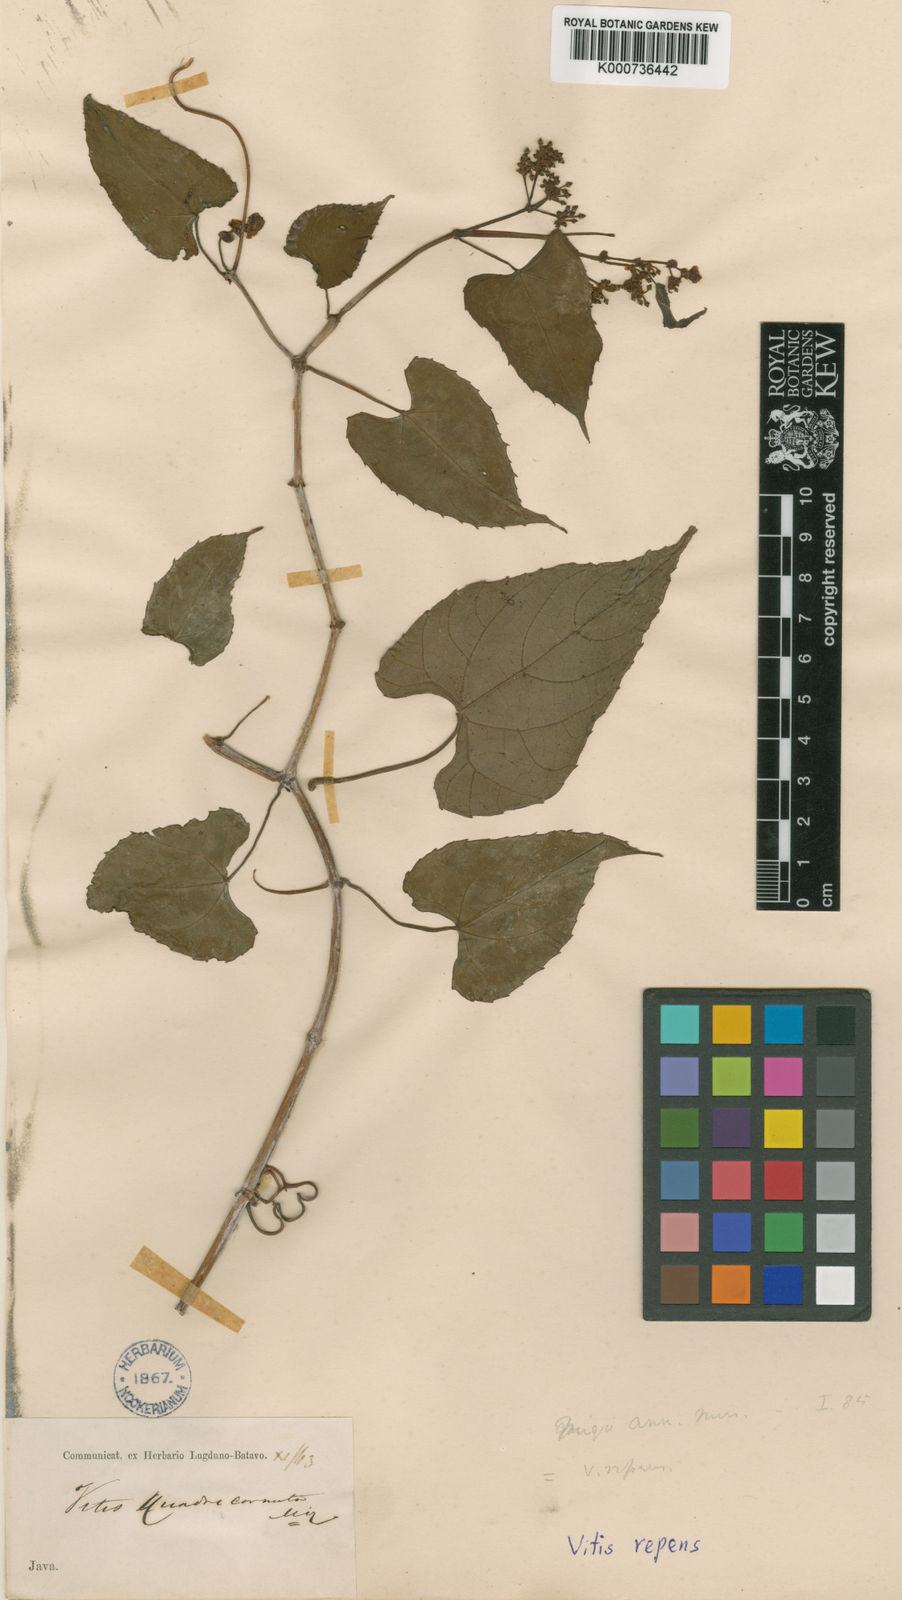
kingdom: Plantae
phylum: Tracheophyta
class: Magnoliopsida
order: Vitales
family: Vitaceae
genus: Cissus
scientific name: Cissus repens
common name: Cissus
